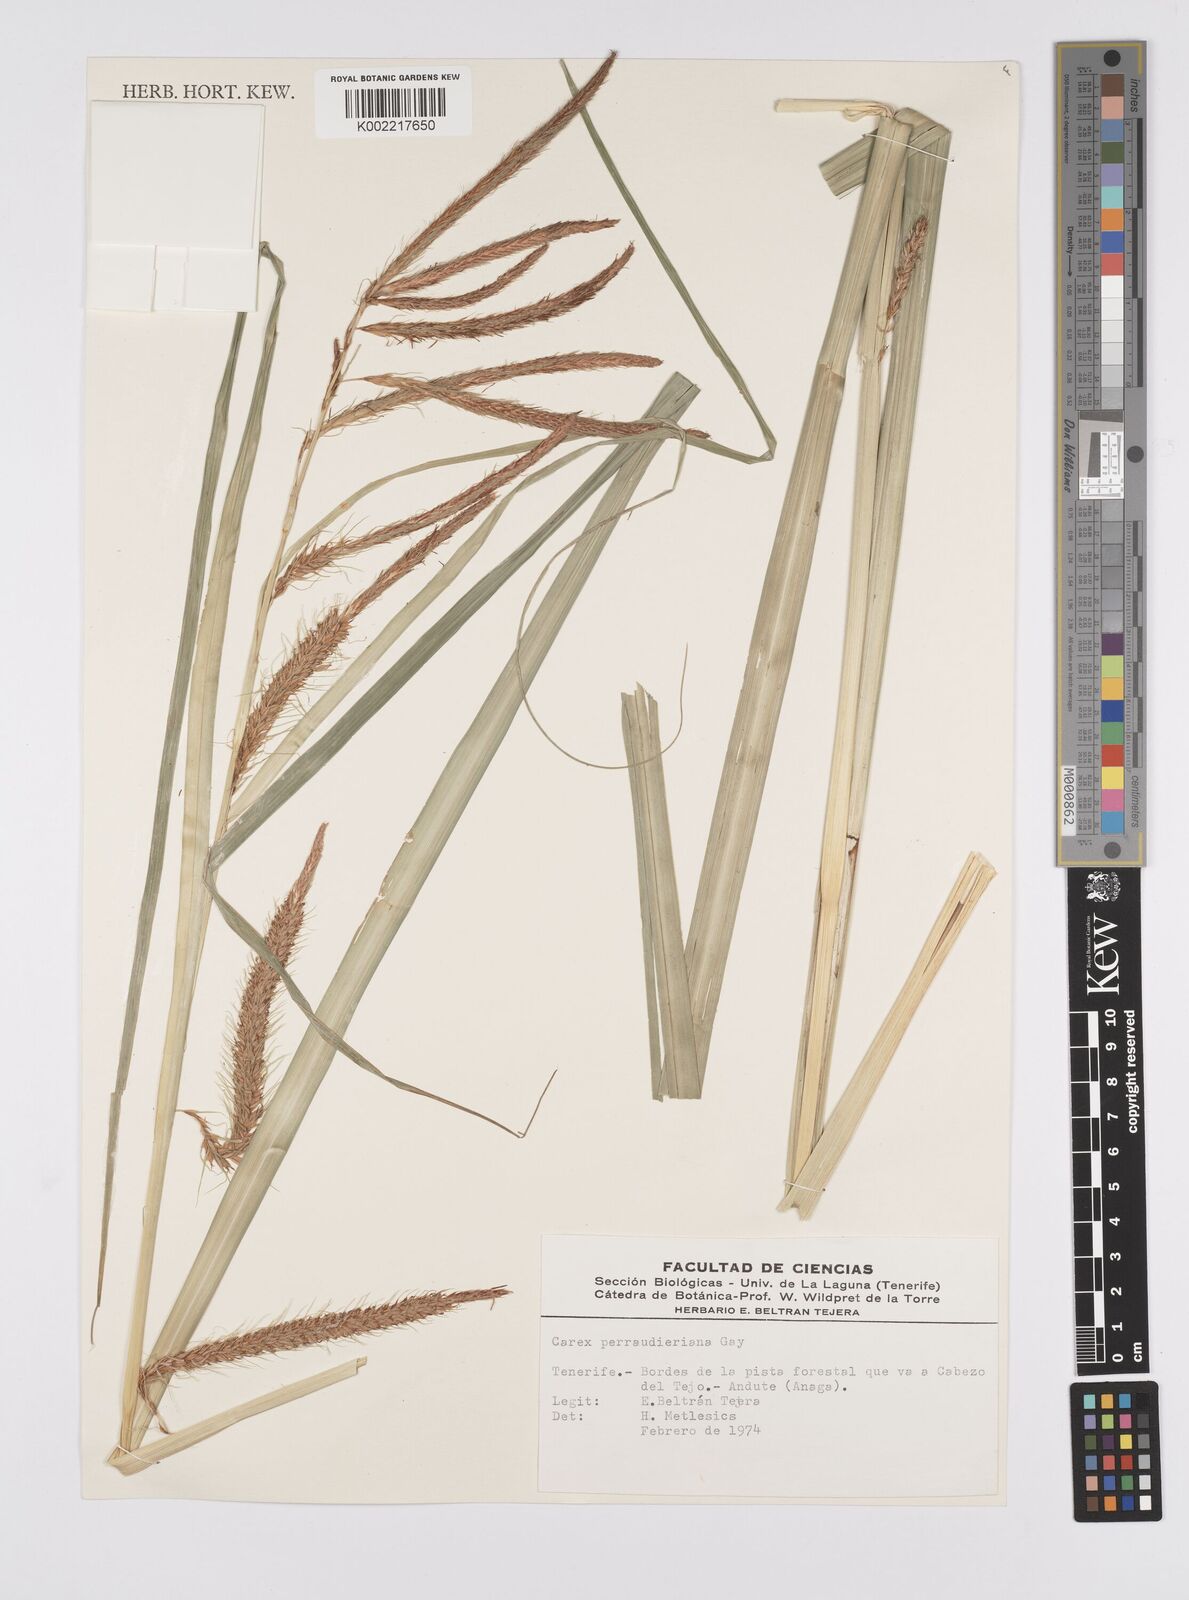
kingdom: Plantae
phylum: Tracheophyta
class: Liliopsida
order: Poales
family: Cyperaceae
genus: Carex
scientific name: Carex perraudieriana
